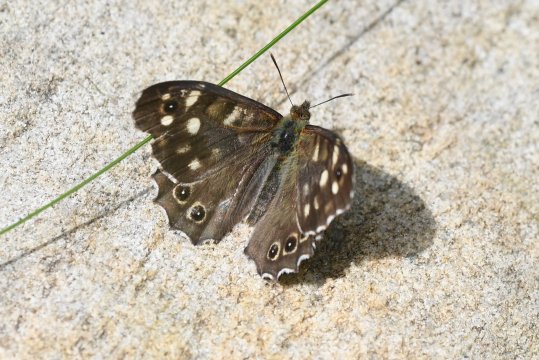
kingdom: Animalia
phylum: Arthropoda
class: Insecta
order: Lepidoptera
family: Nymphalidae
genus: Pararge
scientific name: Pararge aegeria
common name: Speckled Wood Butterfly
